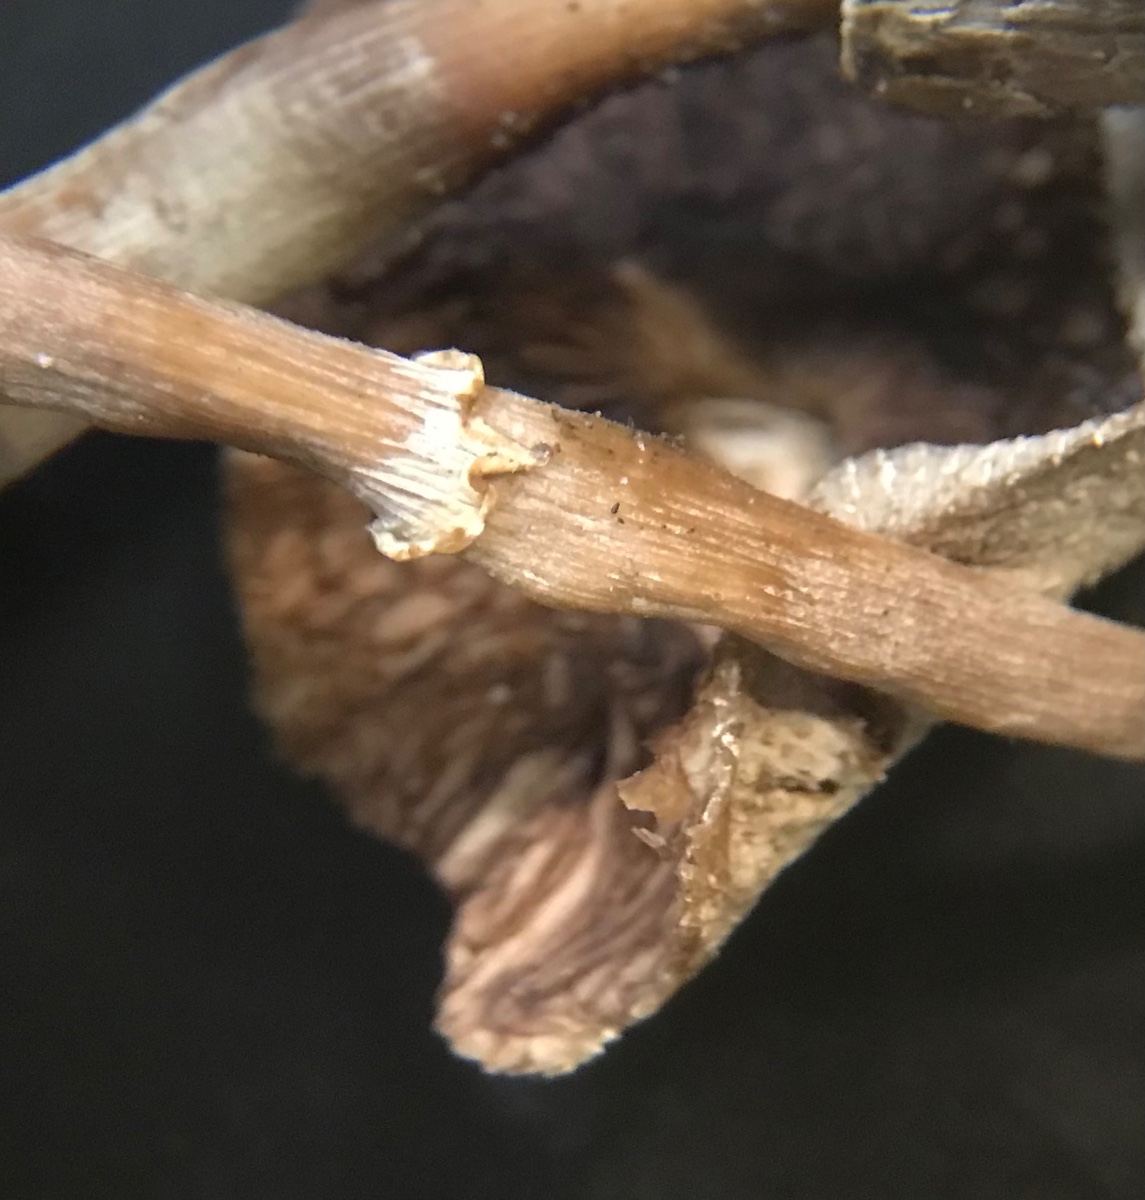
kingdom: Fungi
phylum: Basidiomycota
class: Agaricomycetes
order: Agaricales
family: Agaricaceae
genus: Leucoagaricus
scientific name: Leucoagaricus
